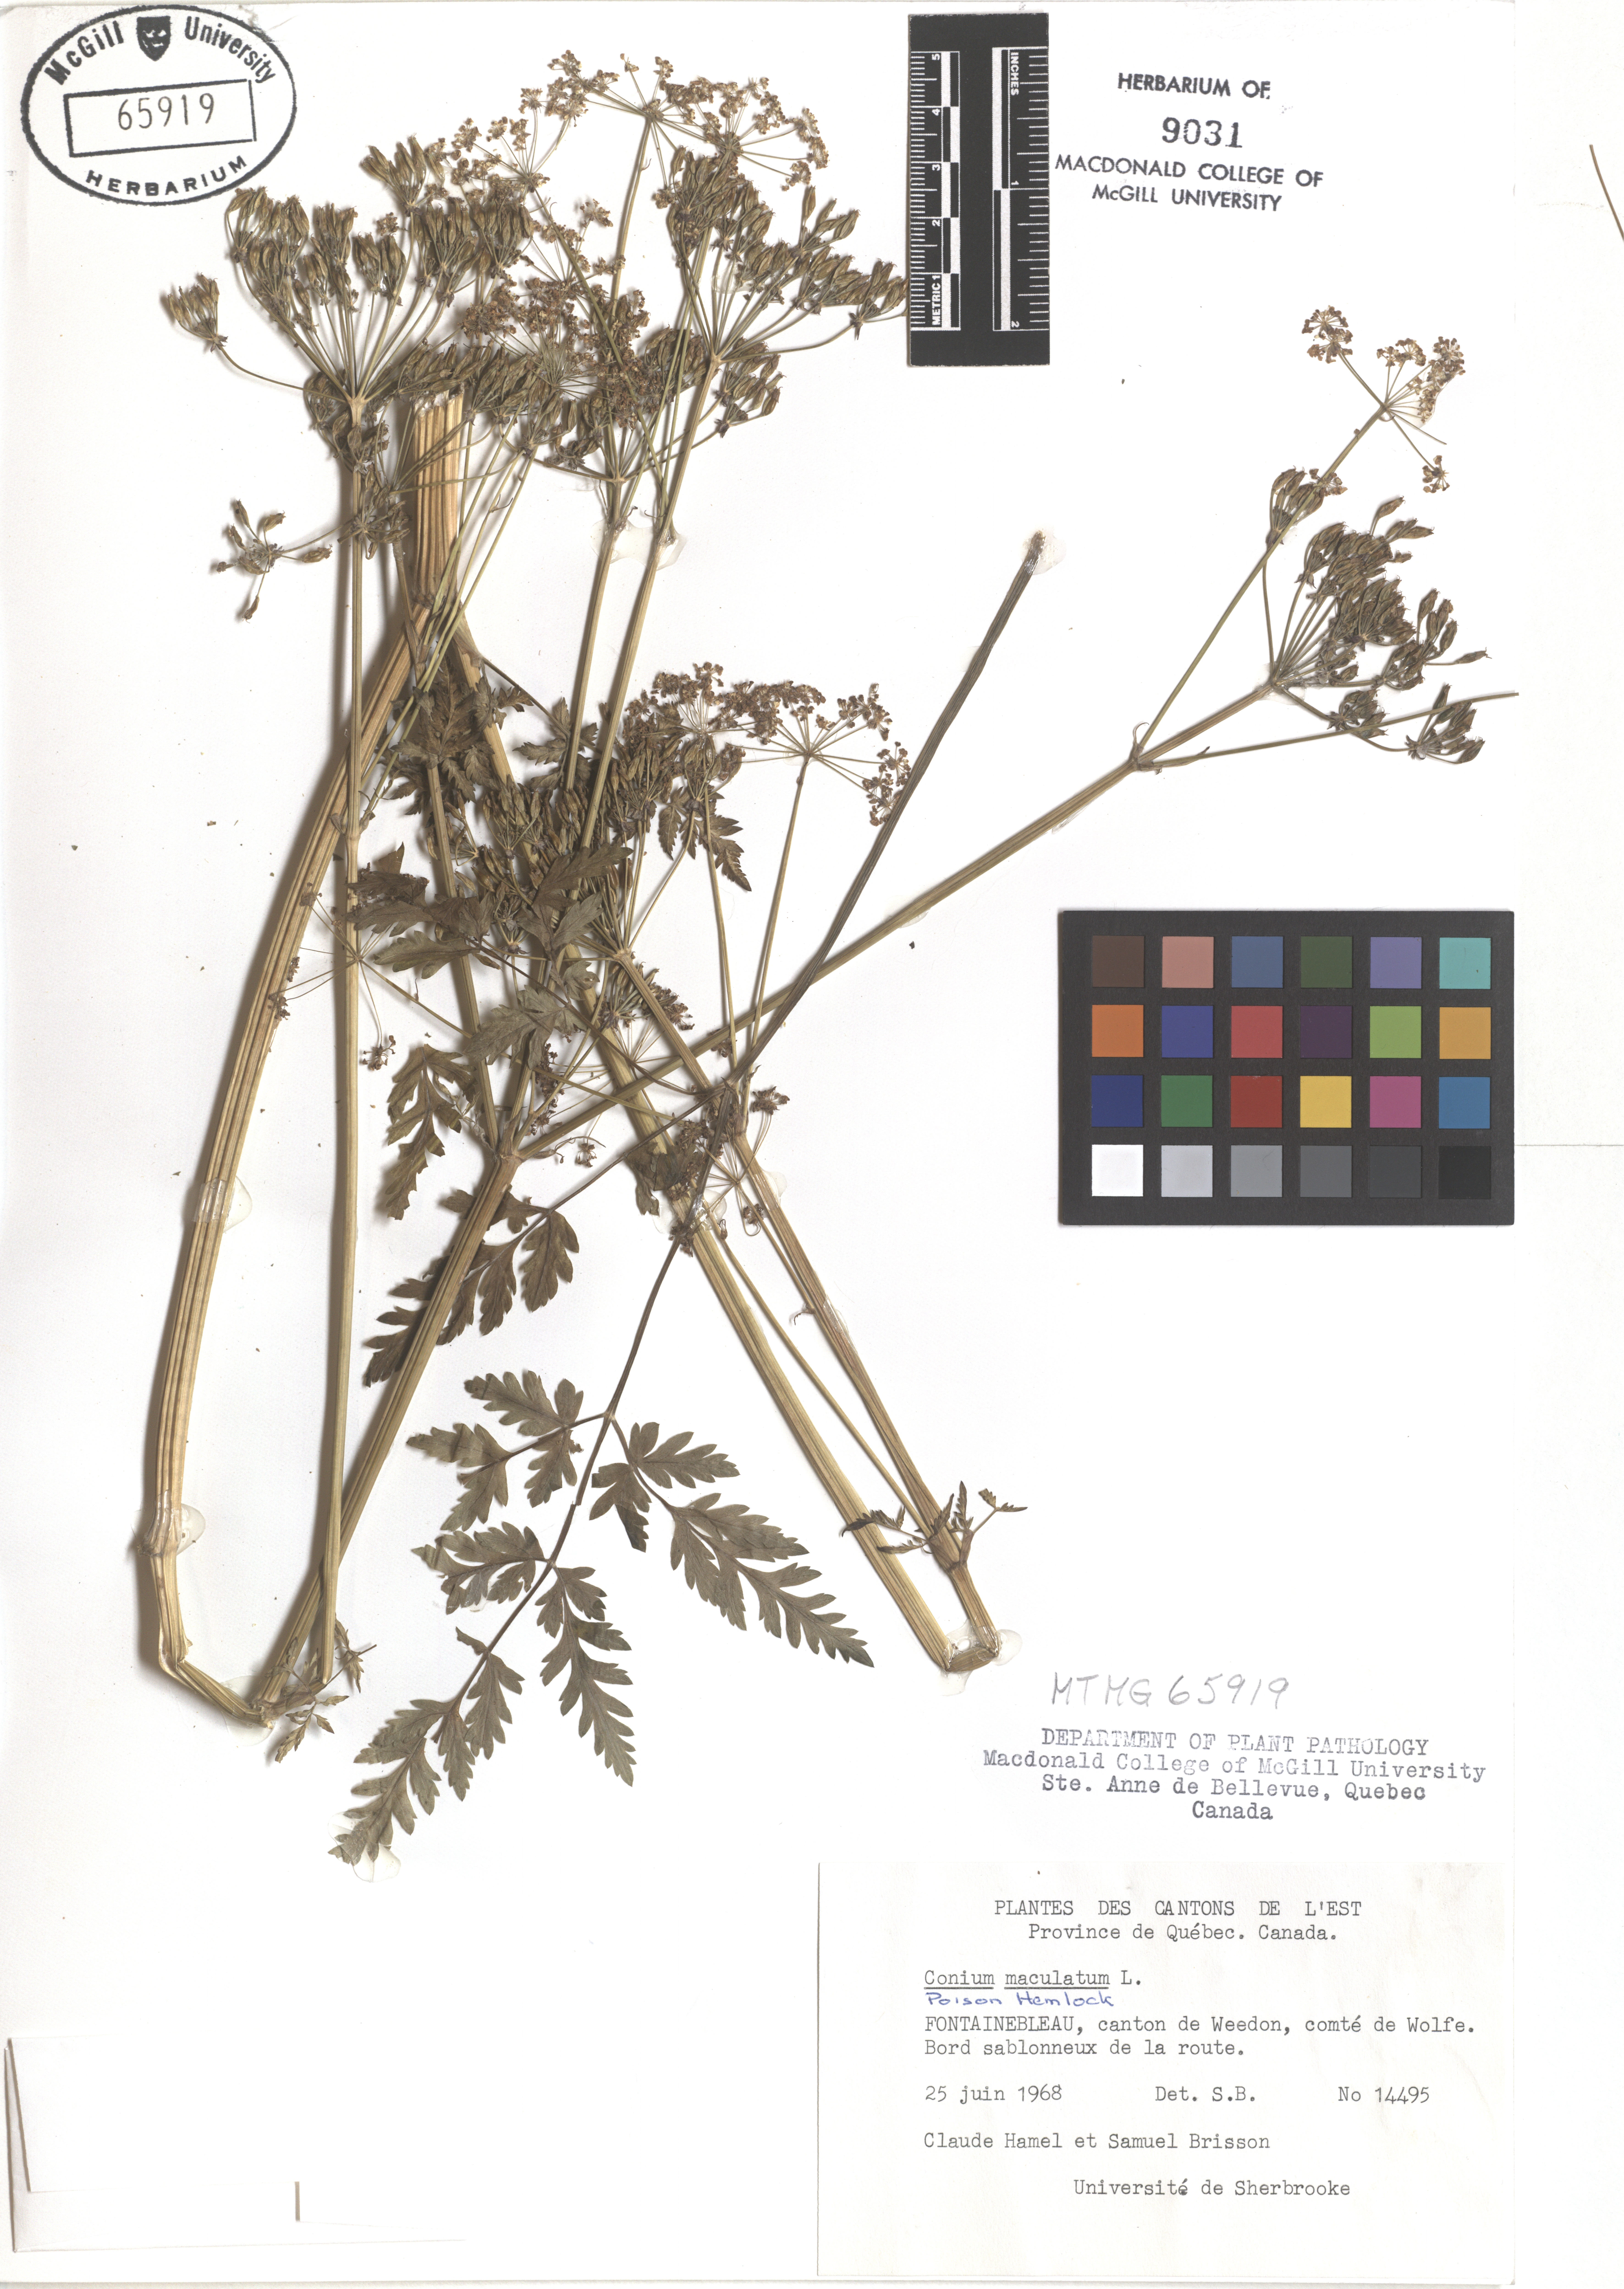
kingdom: Plantae
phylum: Tracheophyta
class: Magnoliopsida
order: Apiales
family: Apiaceae
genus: Conium
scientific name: Conium maculatum
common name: Hemlock
